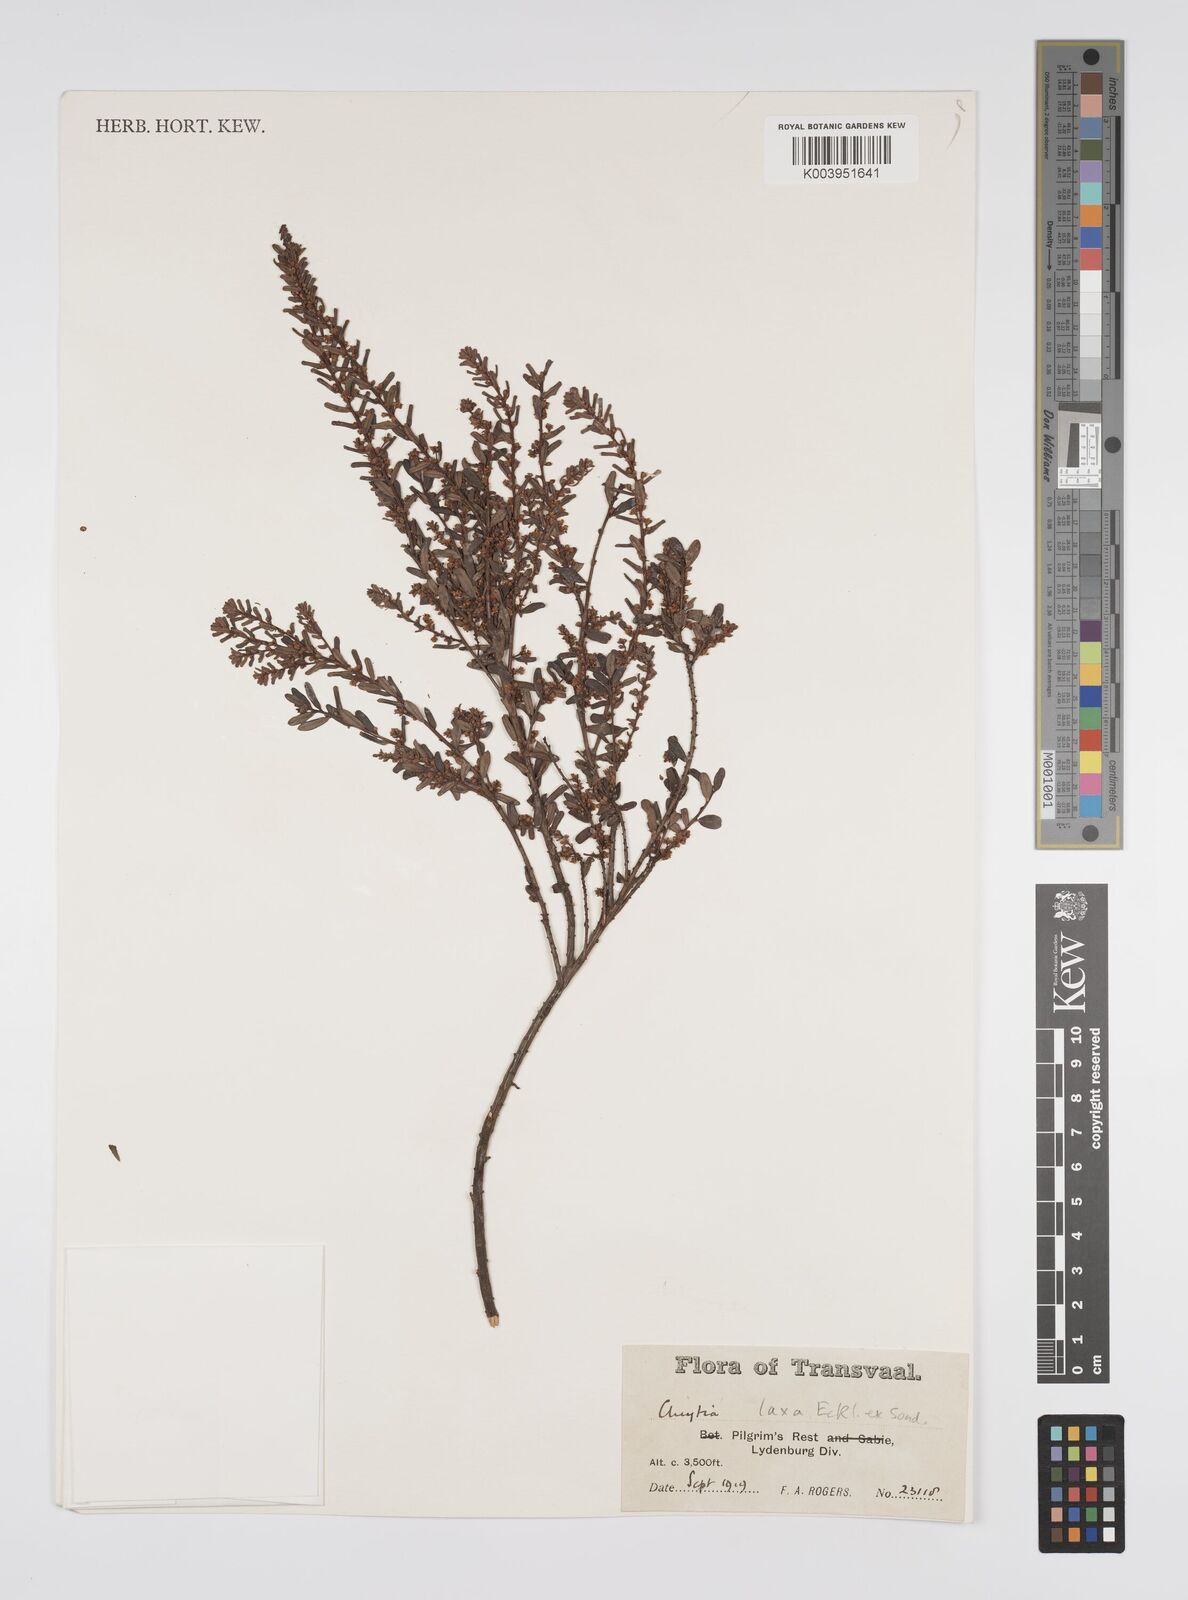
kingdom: Plantae
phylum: Tracheophyta
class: Magnoliopsida
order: Malpighiales
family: Peraceae
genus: Clutia
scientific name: Clutia laxa
